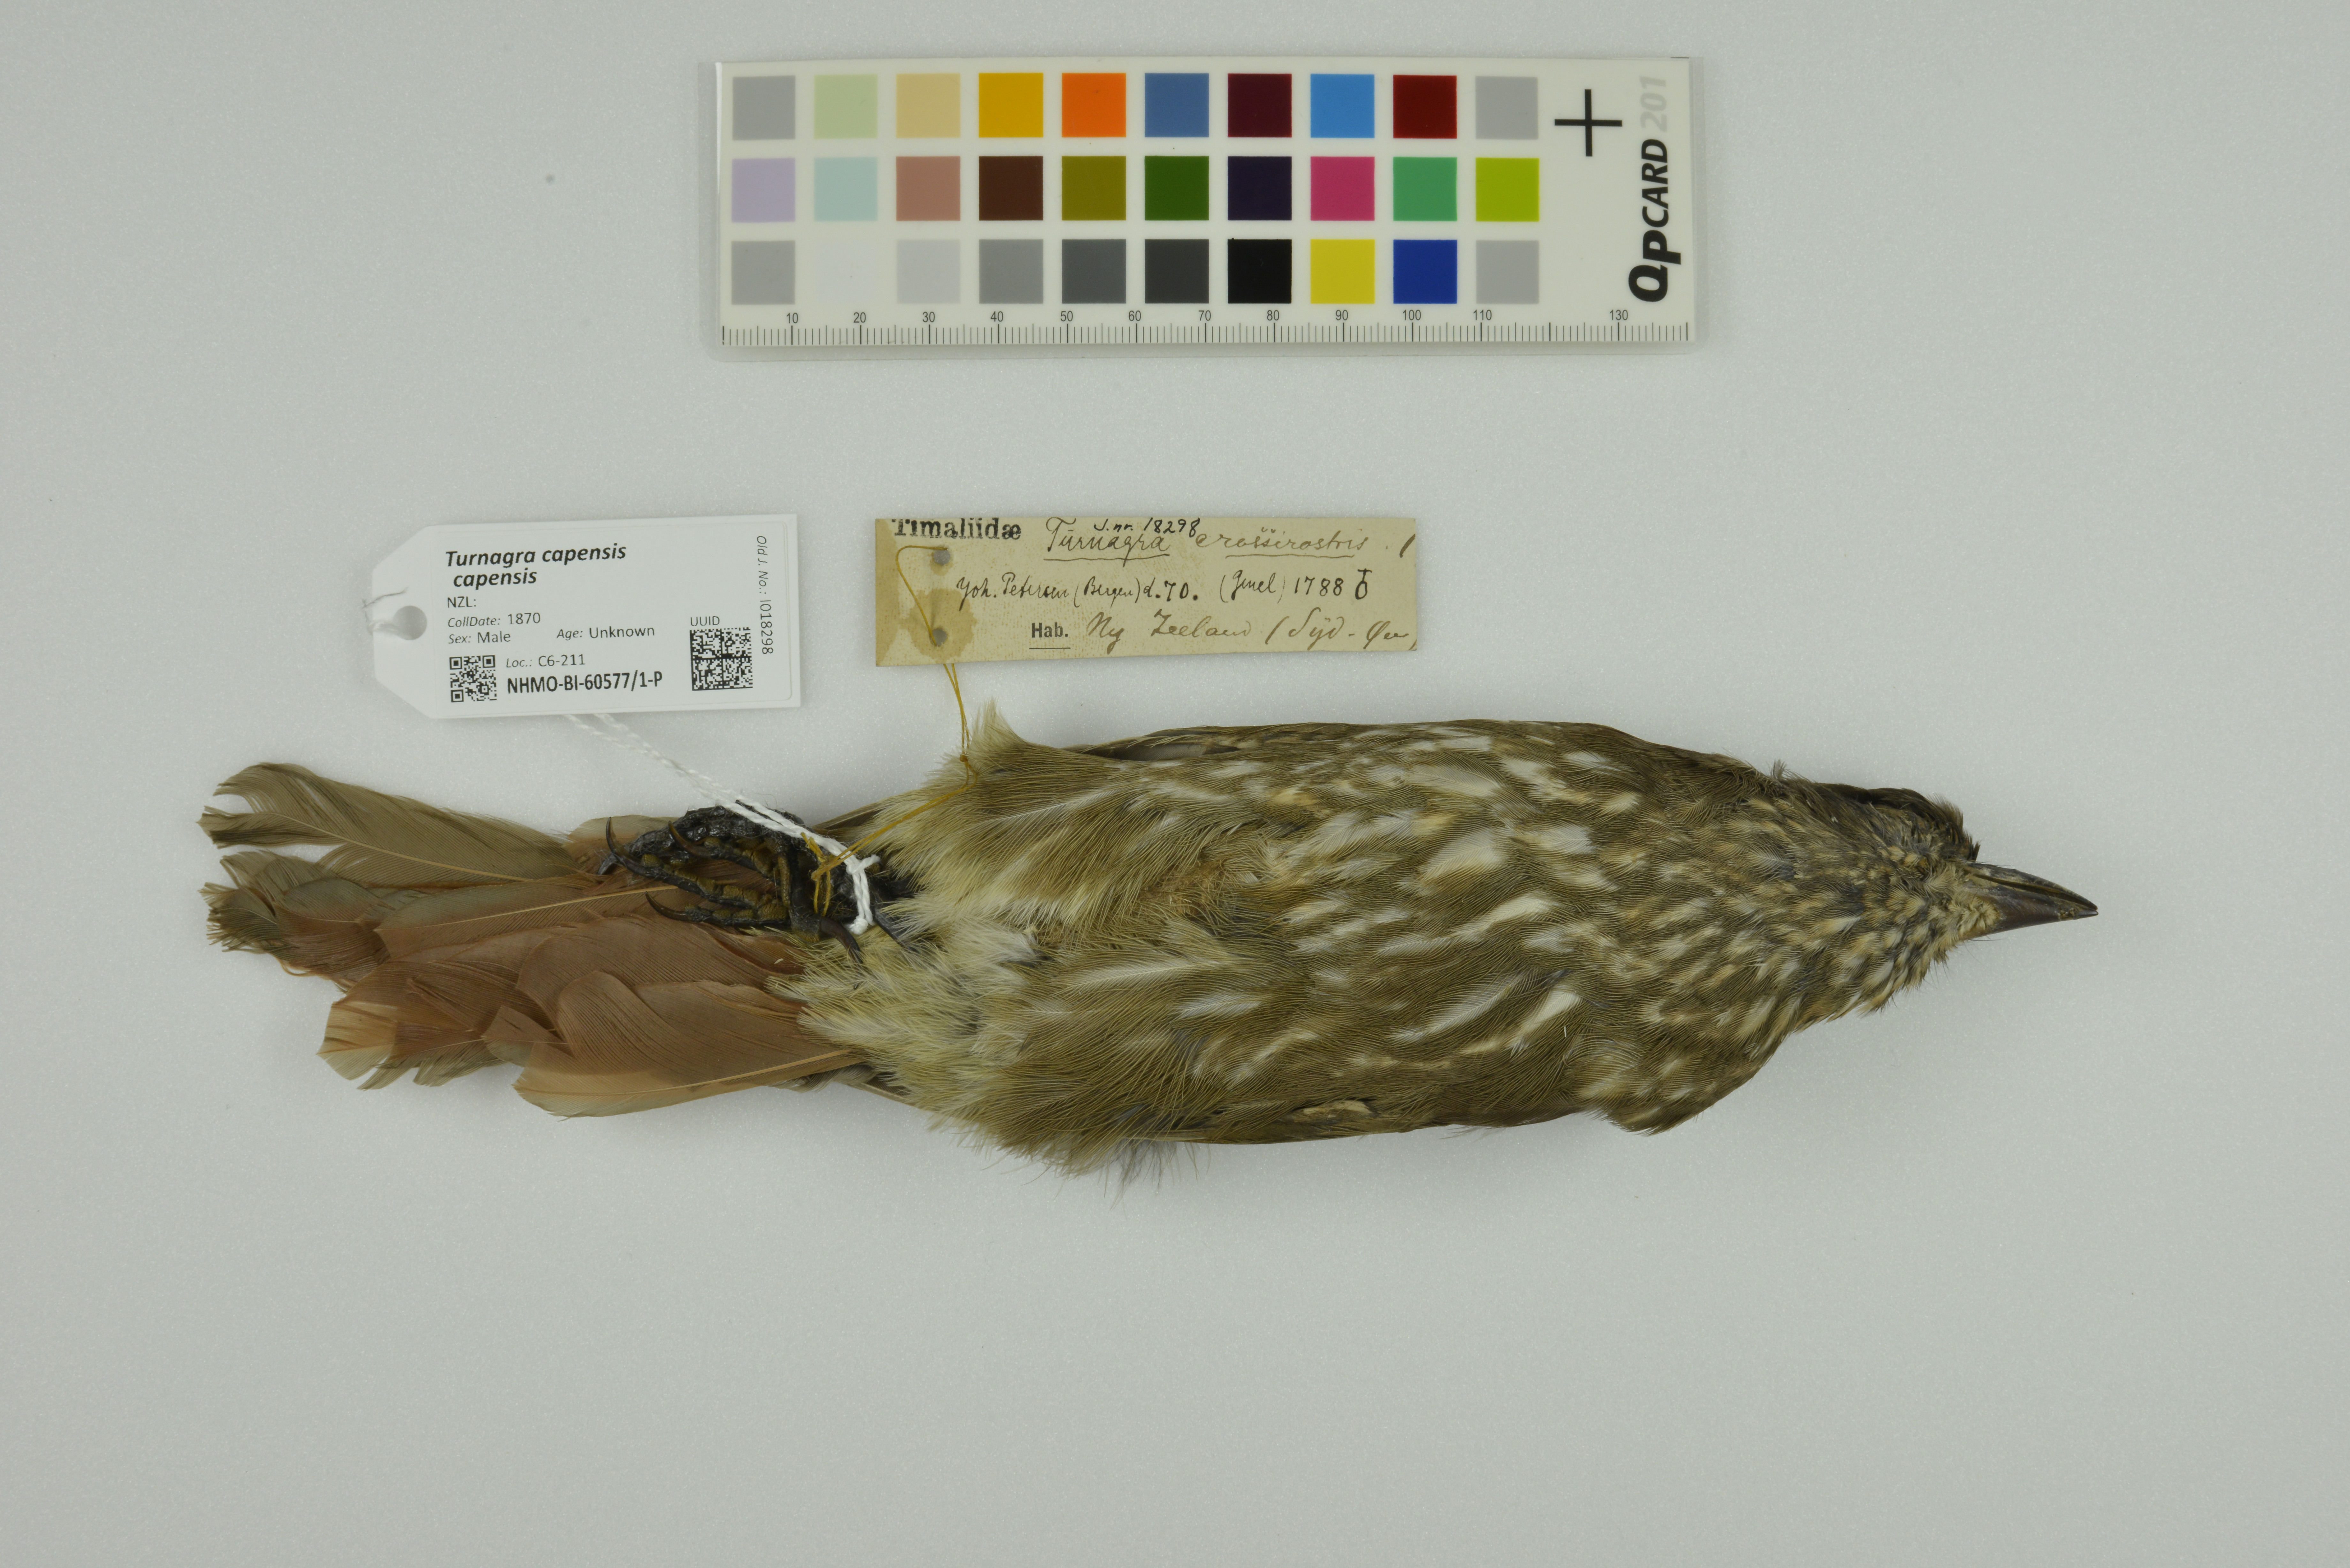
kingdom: Animalia
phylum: Chordata
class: Aves
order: Passeriformes
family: Ptilonorhynchidae
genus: Turnagra
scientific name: Turnagra capensis
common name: South island piopio
